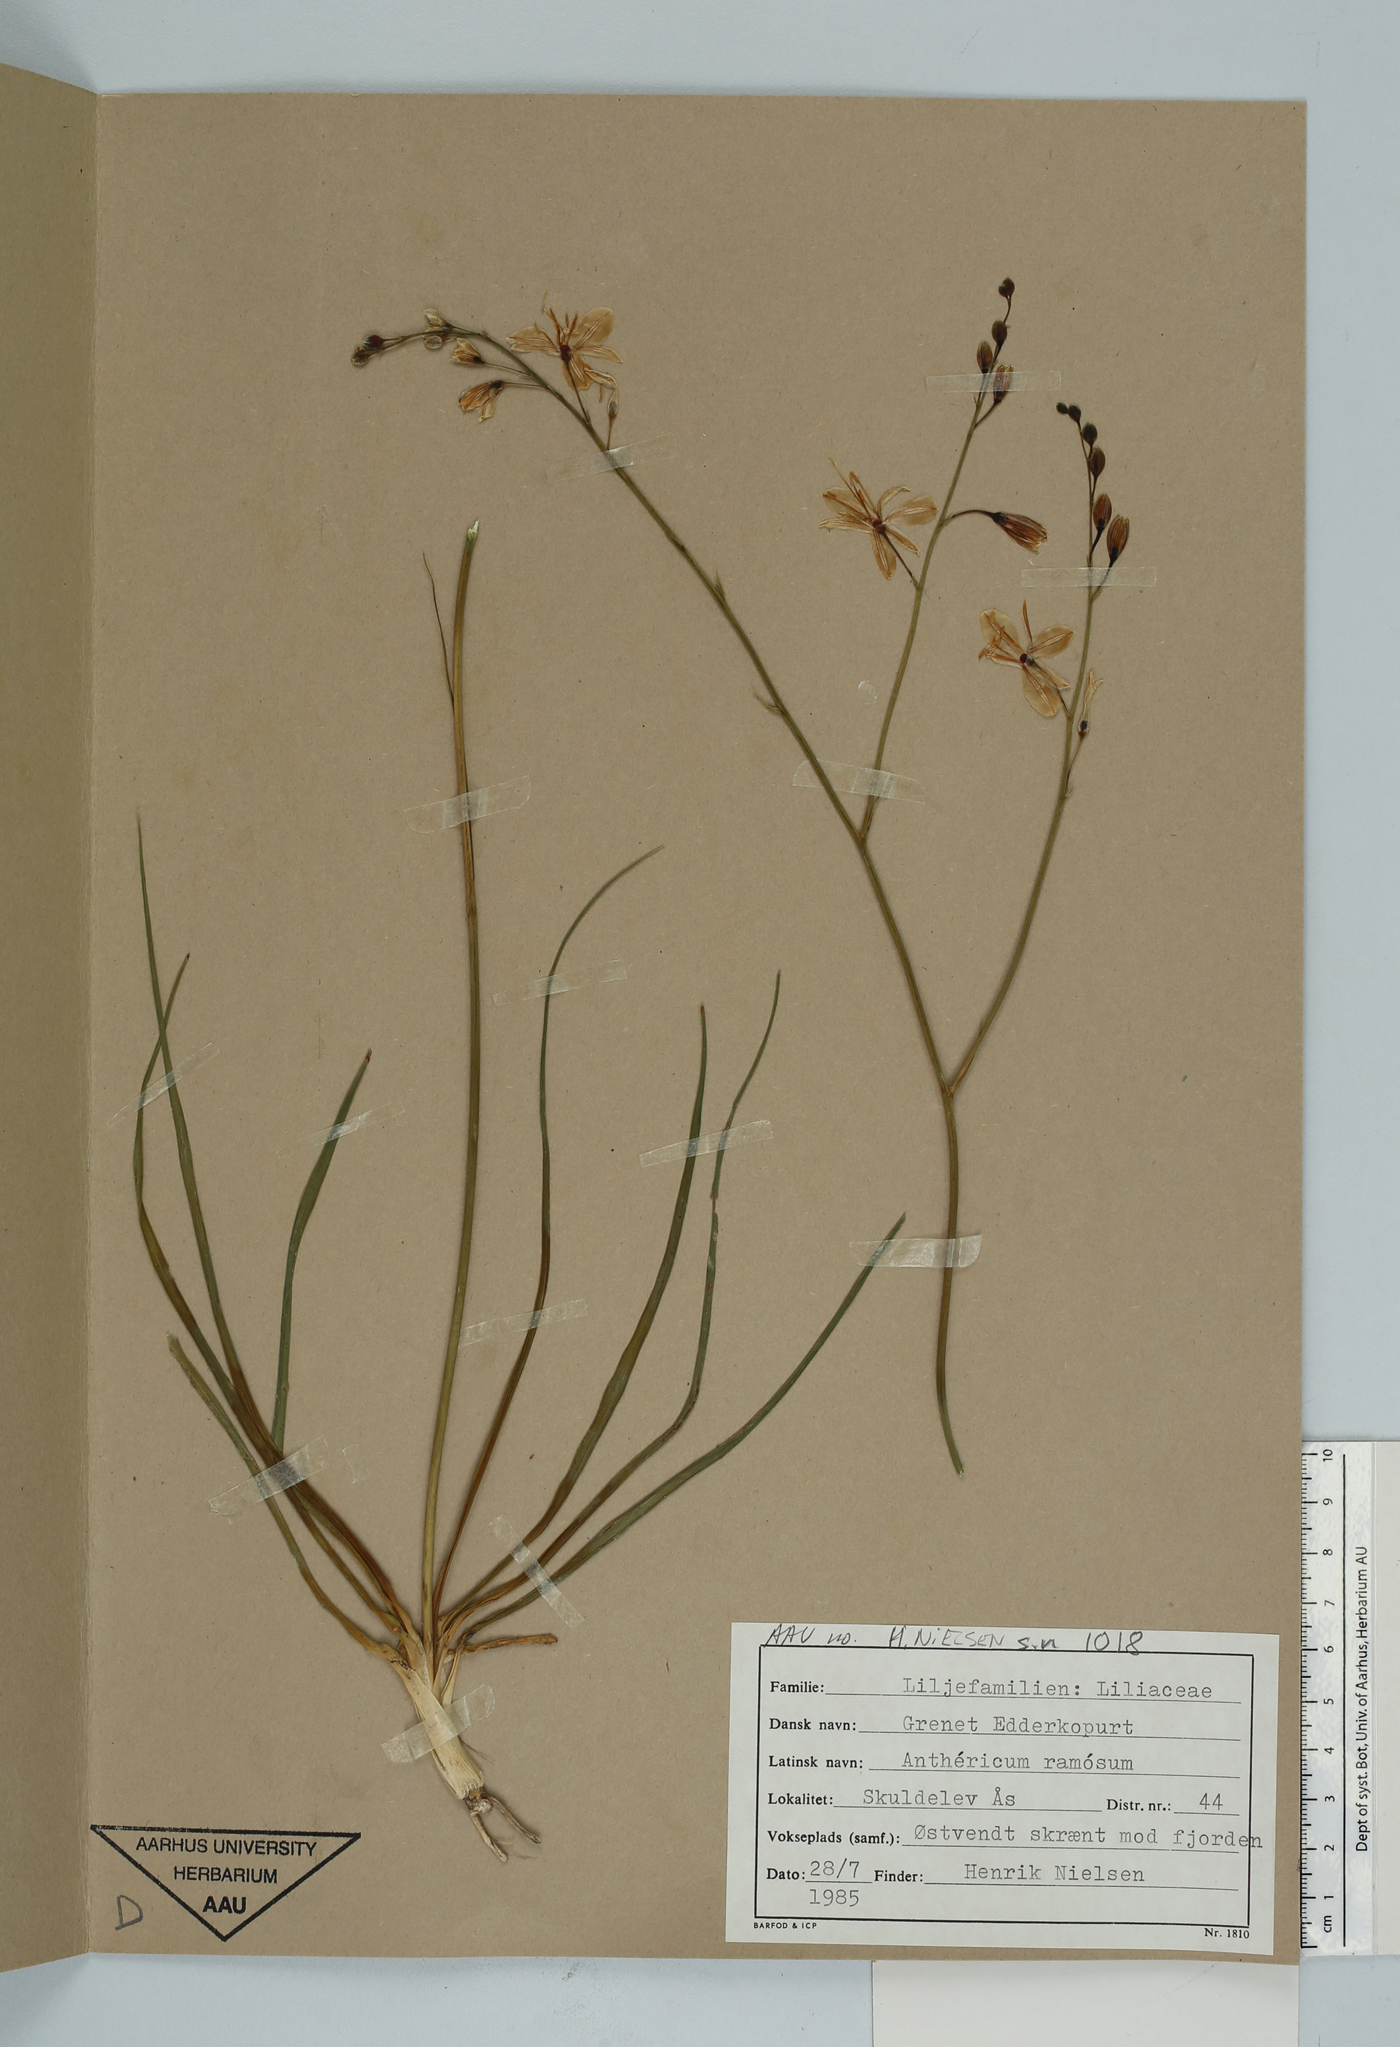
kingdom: Plantae
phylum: Tracheophyta
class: Liliopsida
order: Asparagales
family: Asparagaceae
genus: Anthericum
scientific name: Anthericum ramosum
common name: Branched st. bernard's-lily
